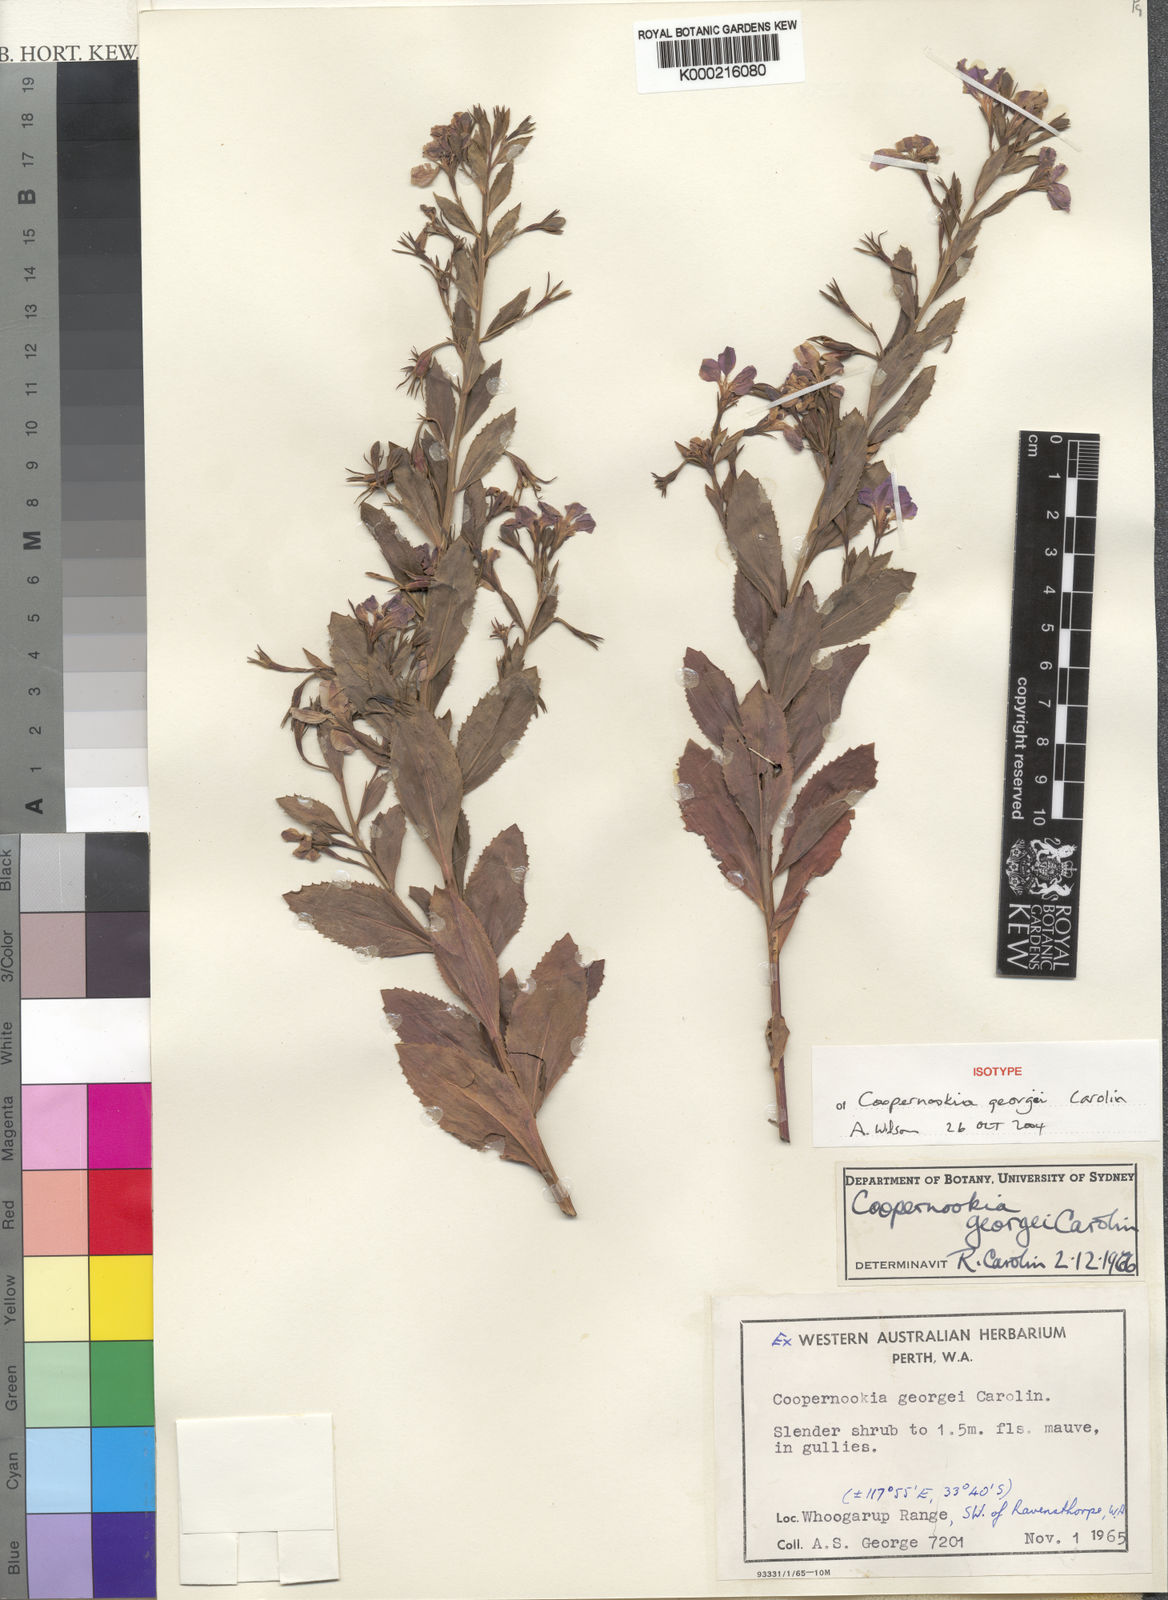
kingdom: Plantae
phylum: Tracheophyta
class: Magnoliopsida
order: Asterales
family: Goodeniaceae
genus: Goodenia
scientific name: Goodenia georgei
